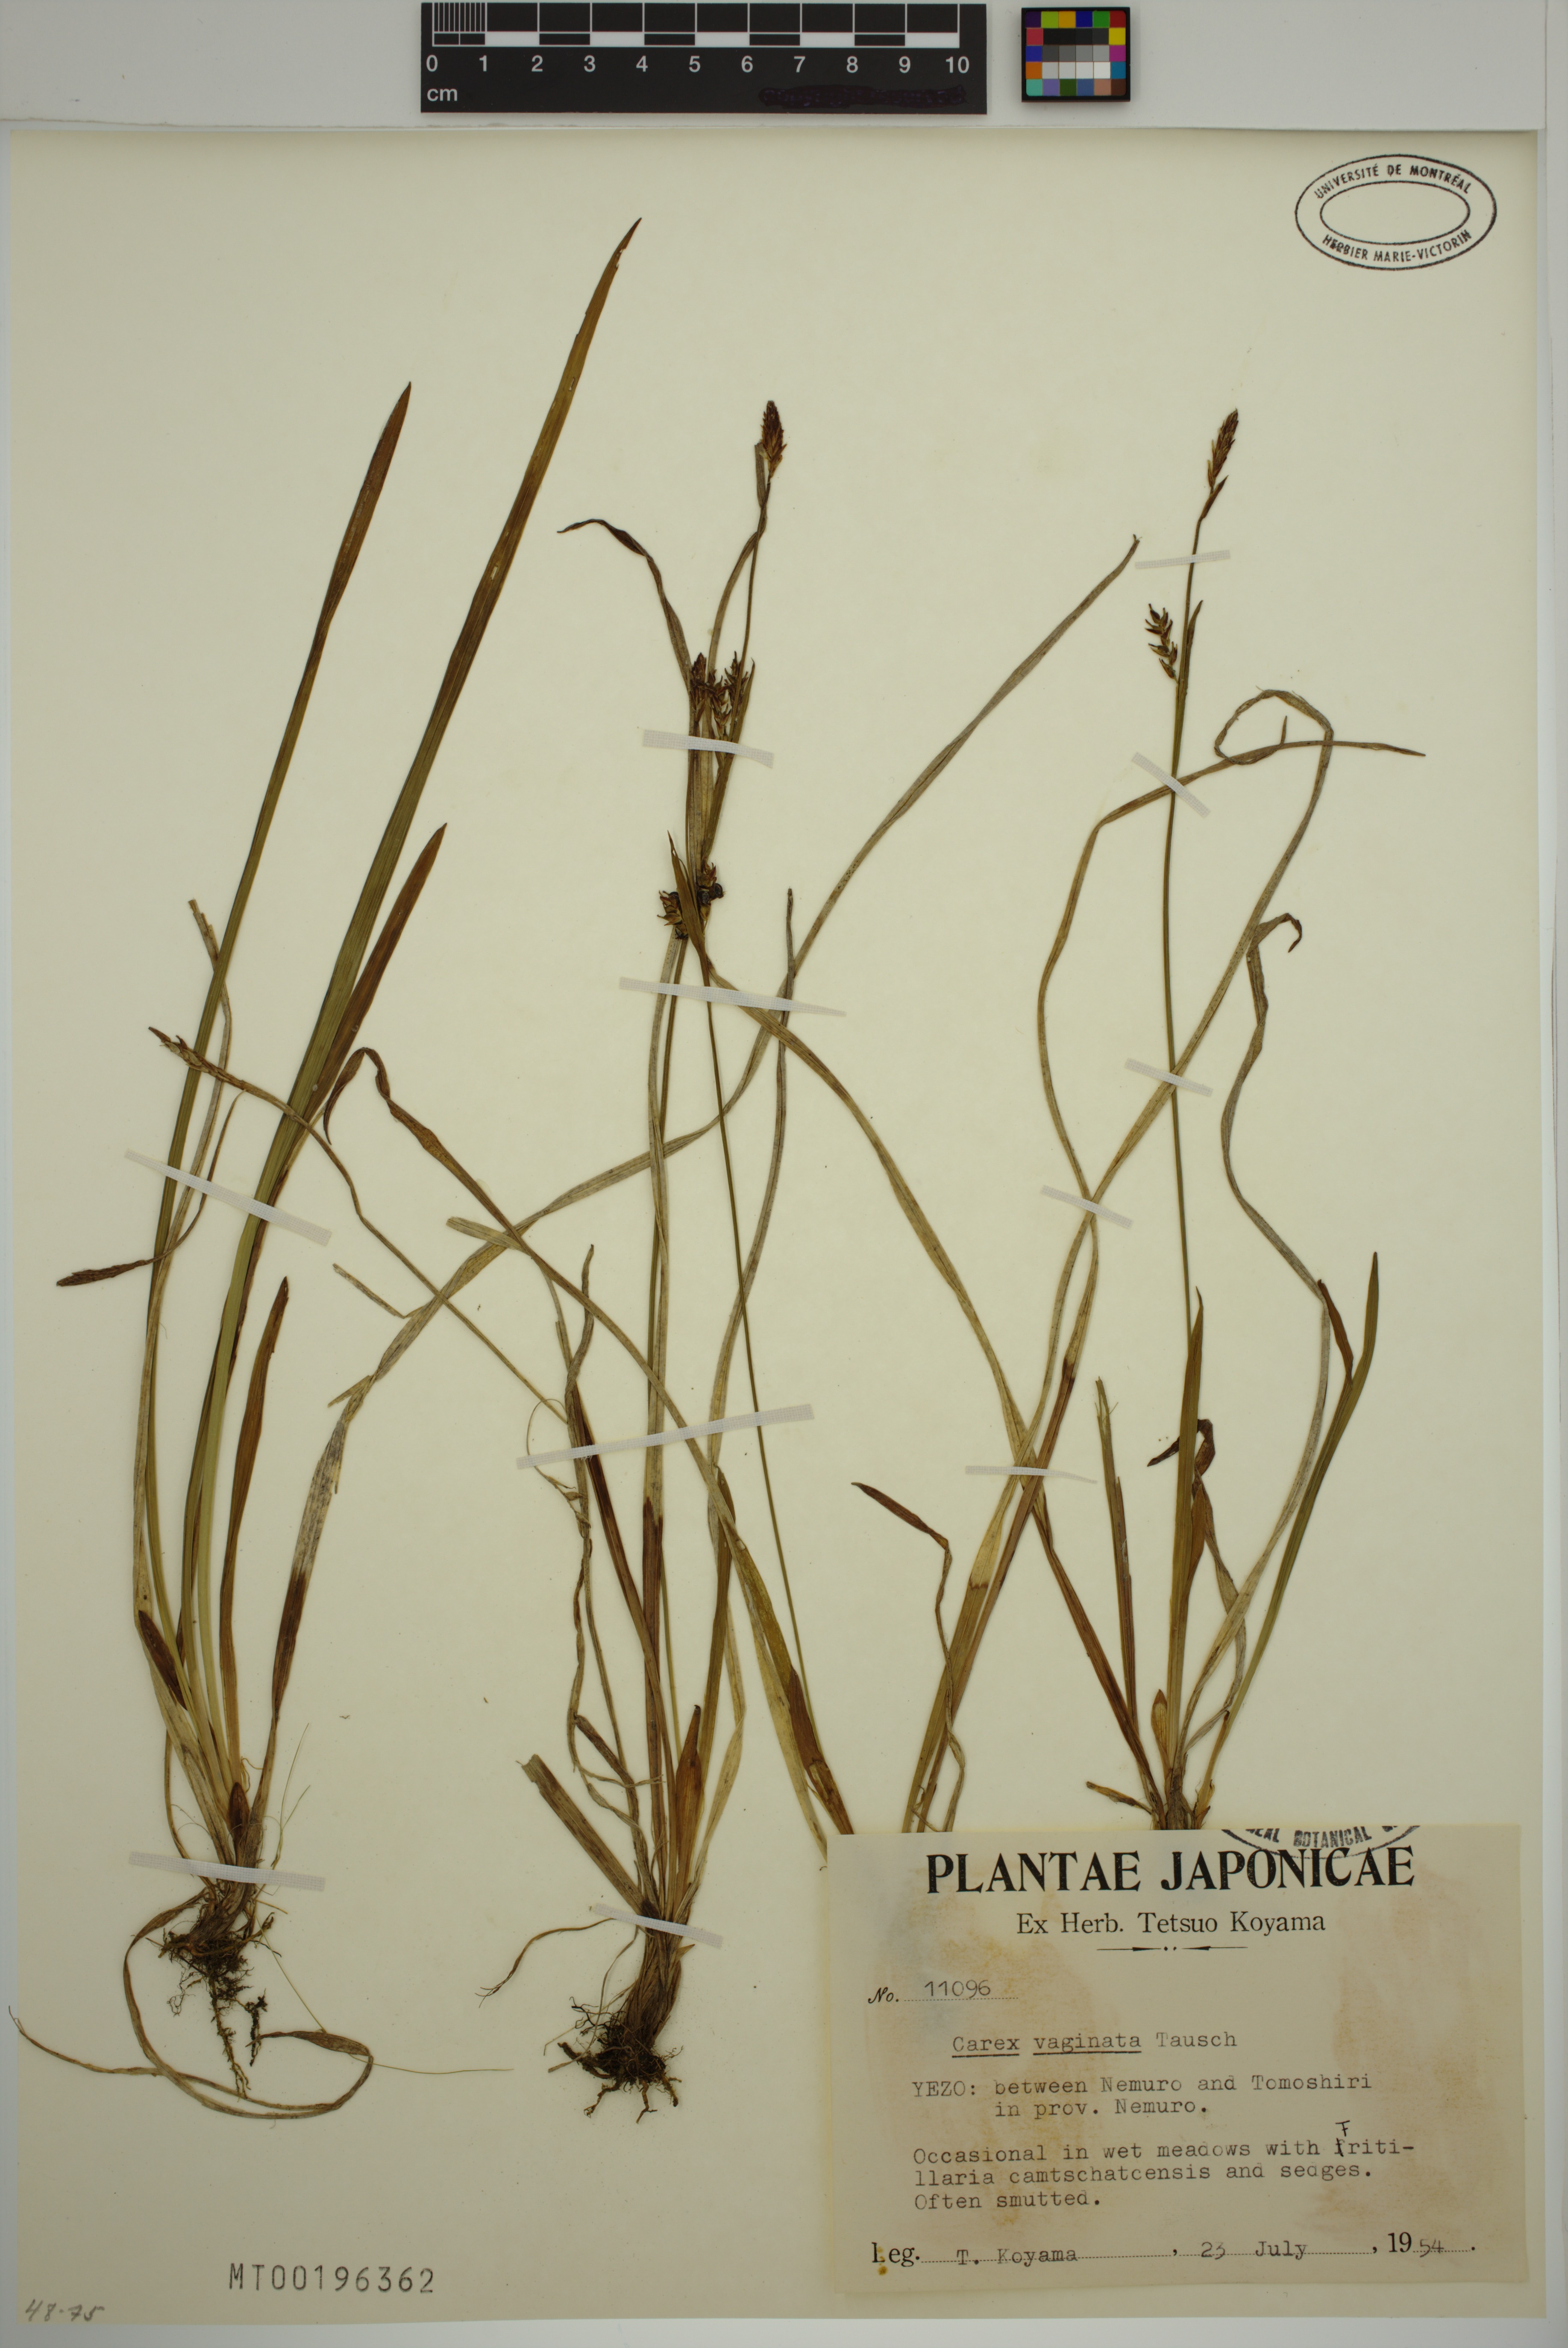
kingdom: Plantae
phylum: Tracheophyta
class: Liliopsida
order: Poales
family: Cyperaceae
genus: Carex
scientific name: Carex vaginata
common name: Sheathed sedge
